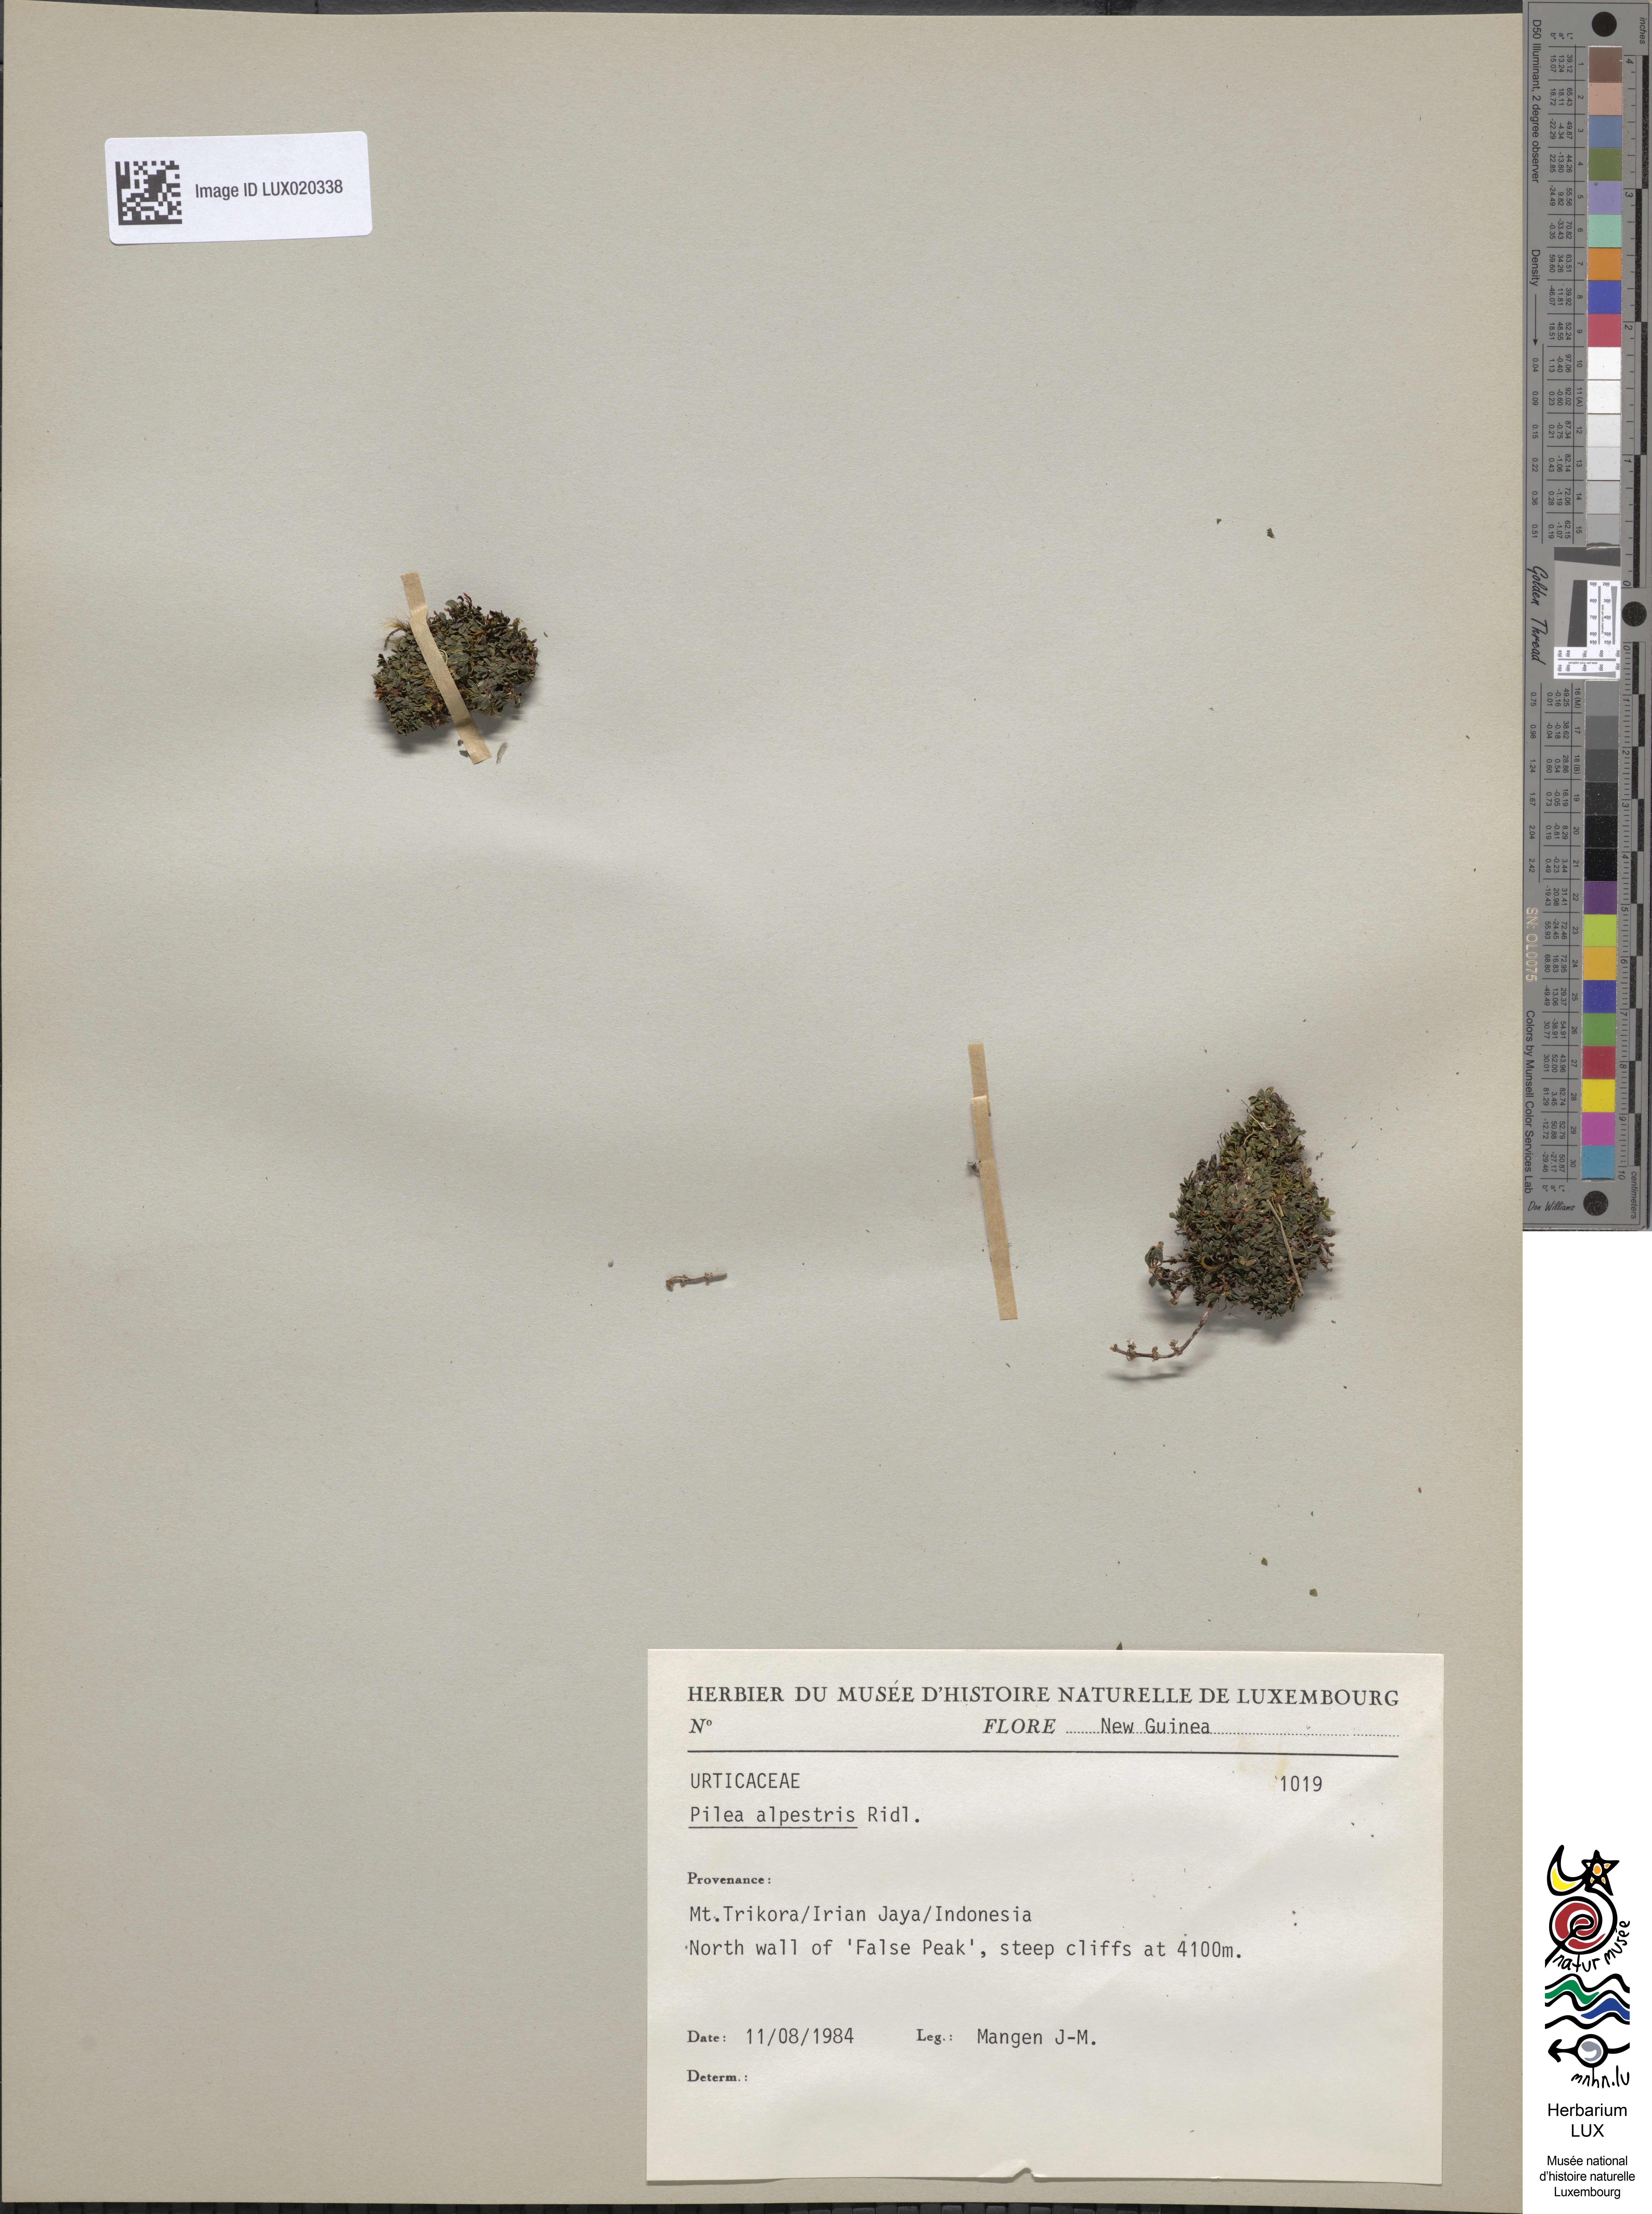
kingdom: Plantae
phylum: Tracheophyta
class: Magnoliopsida
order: Rosales
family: Urticaceae
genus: Pilea
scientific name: Pilea lapestris
